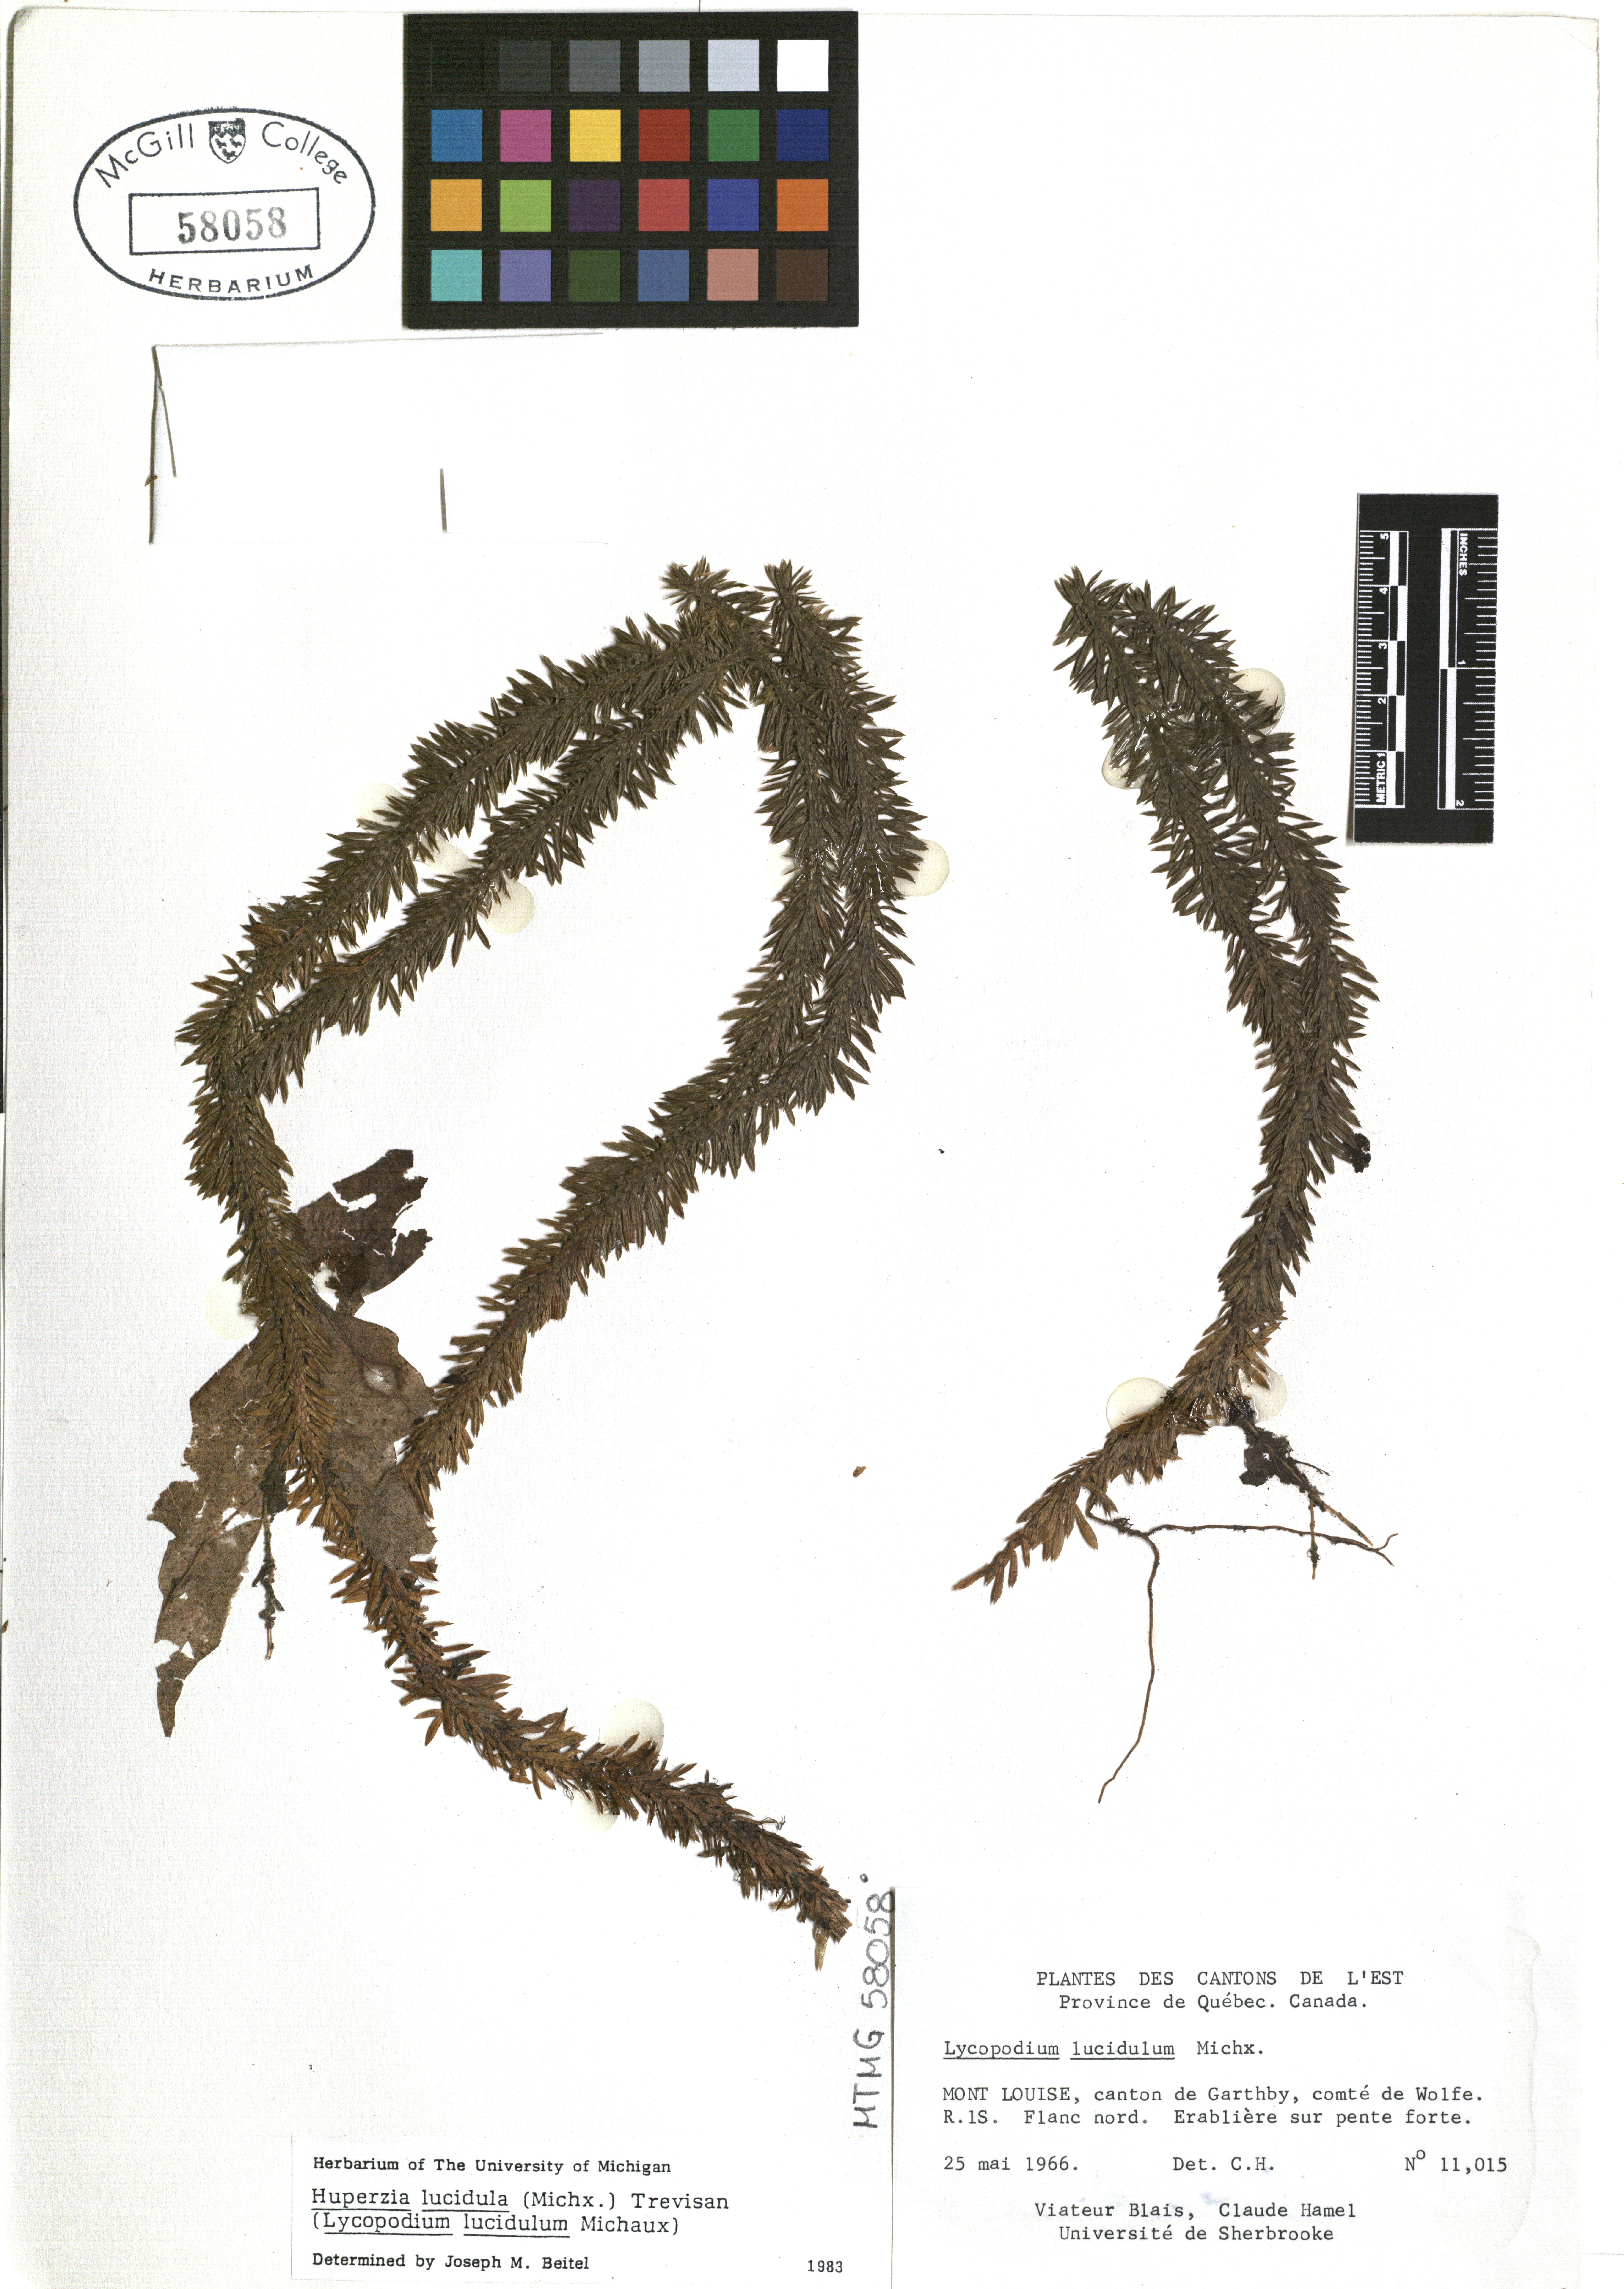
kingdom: Plantae
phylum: Tracheophyta
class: Lycopodiopsida
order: Lycopodiales
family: Lycopodiaceae
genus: Huperzia
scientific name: Huperzia lucidula
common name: Shining clubmoss
